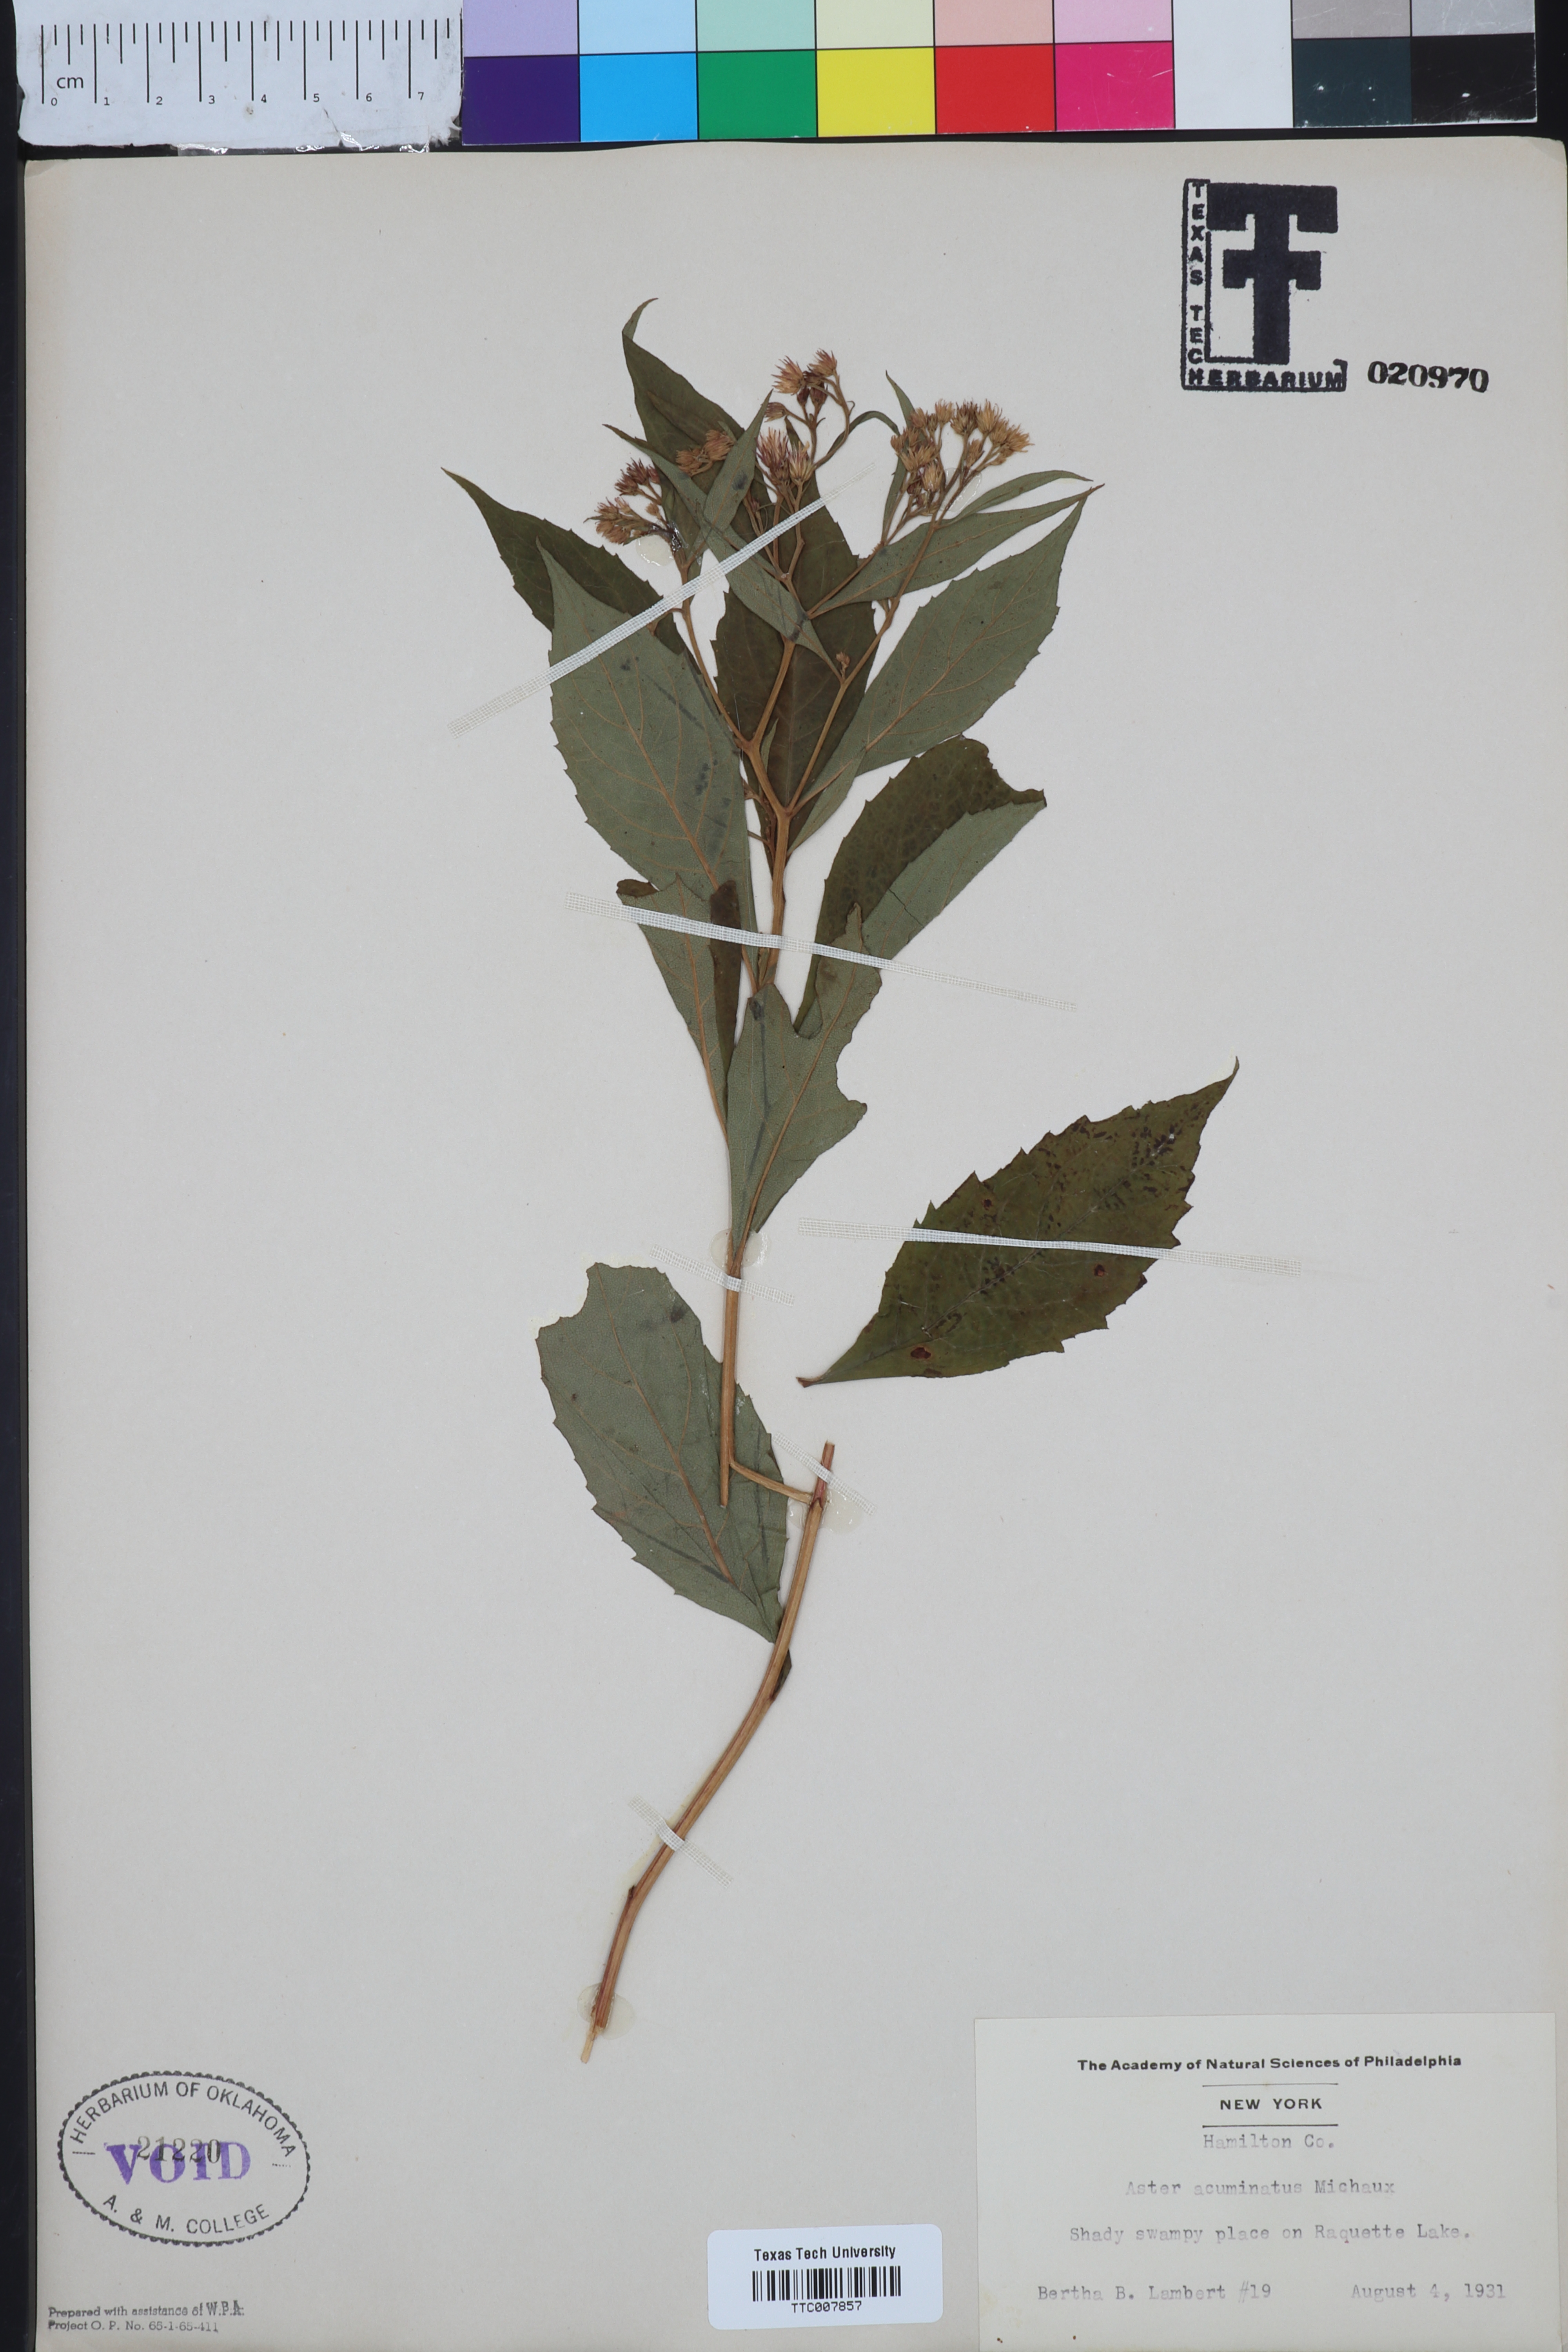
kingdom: Plantae
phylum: Tracheophyta
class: Magnoliopsida
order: Asterales
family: Asteraceae
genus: Oclemena
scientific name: Oclemena acuminata
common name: Mountain aster
